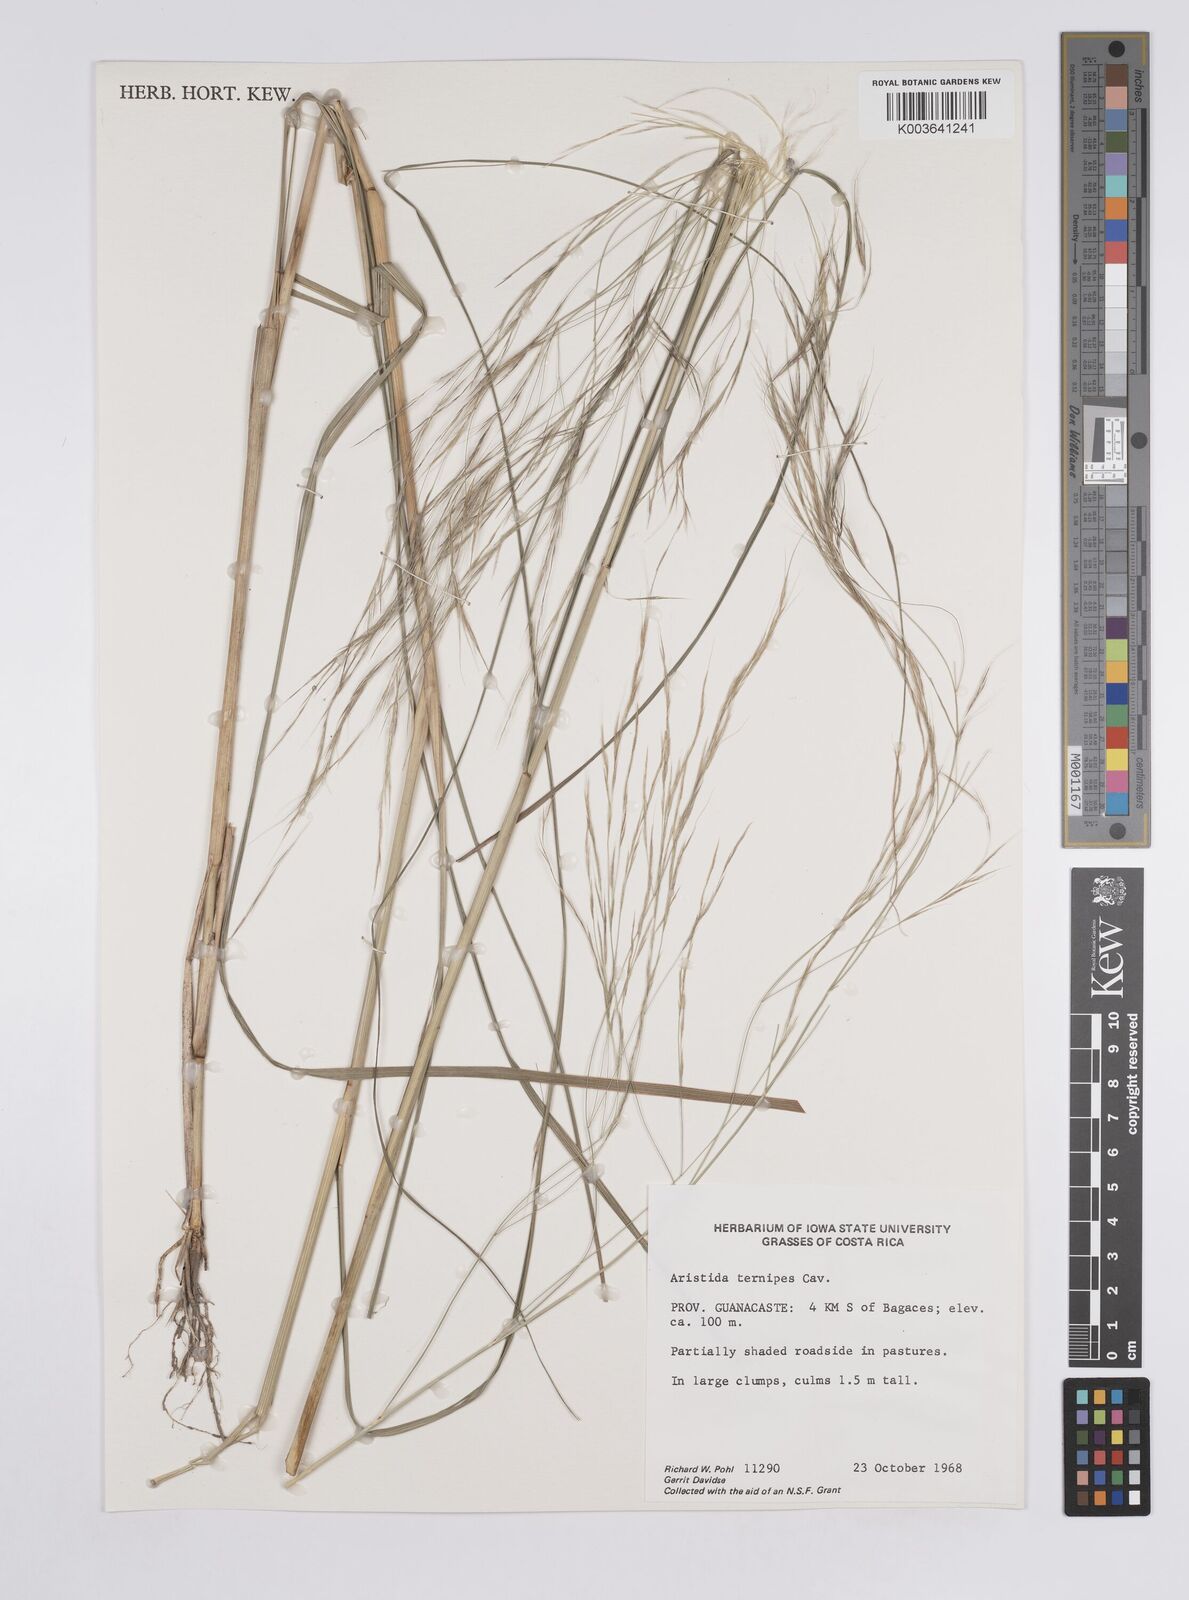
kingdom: Plantae
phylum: Tracheophyta
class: Liliopsida
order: Poales
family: Poaceae
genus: Aristida
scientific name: Aristida
